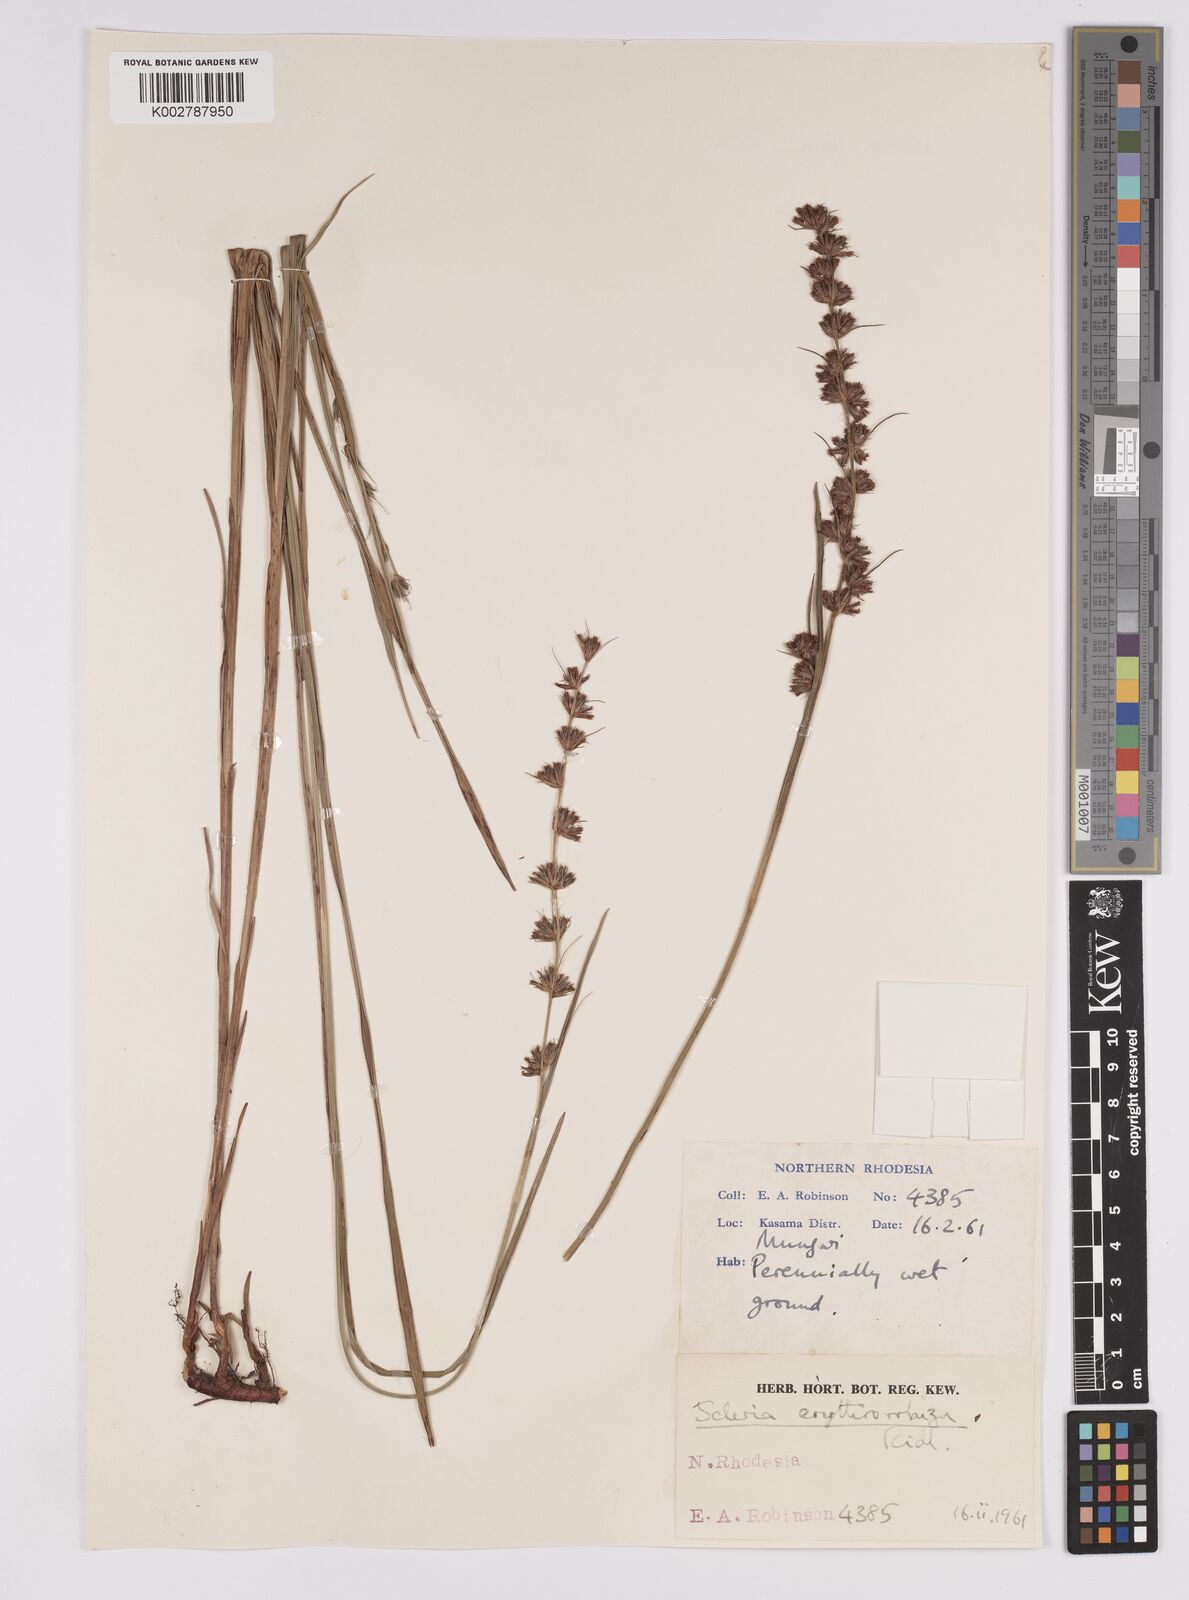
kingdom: Plantae
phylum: Tracheophyta
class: Liliopsida
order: Poales
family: Cyperaceae
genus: Scleria
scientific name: Scleria erythrorrhiza
